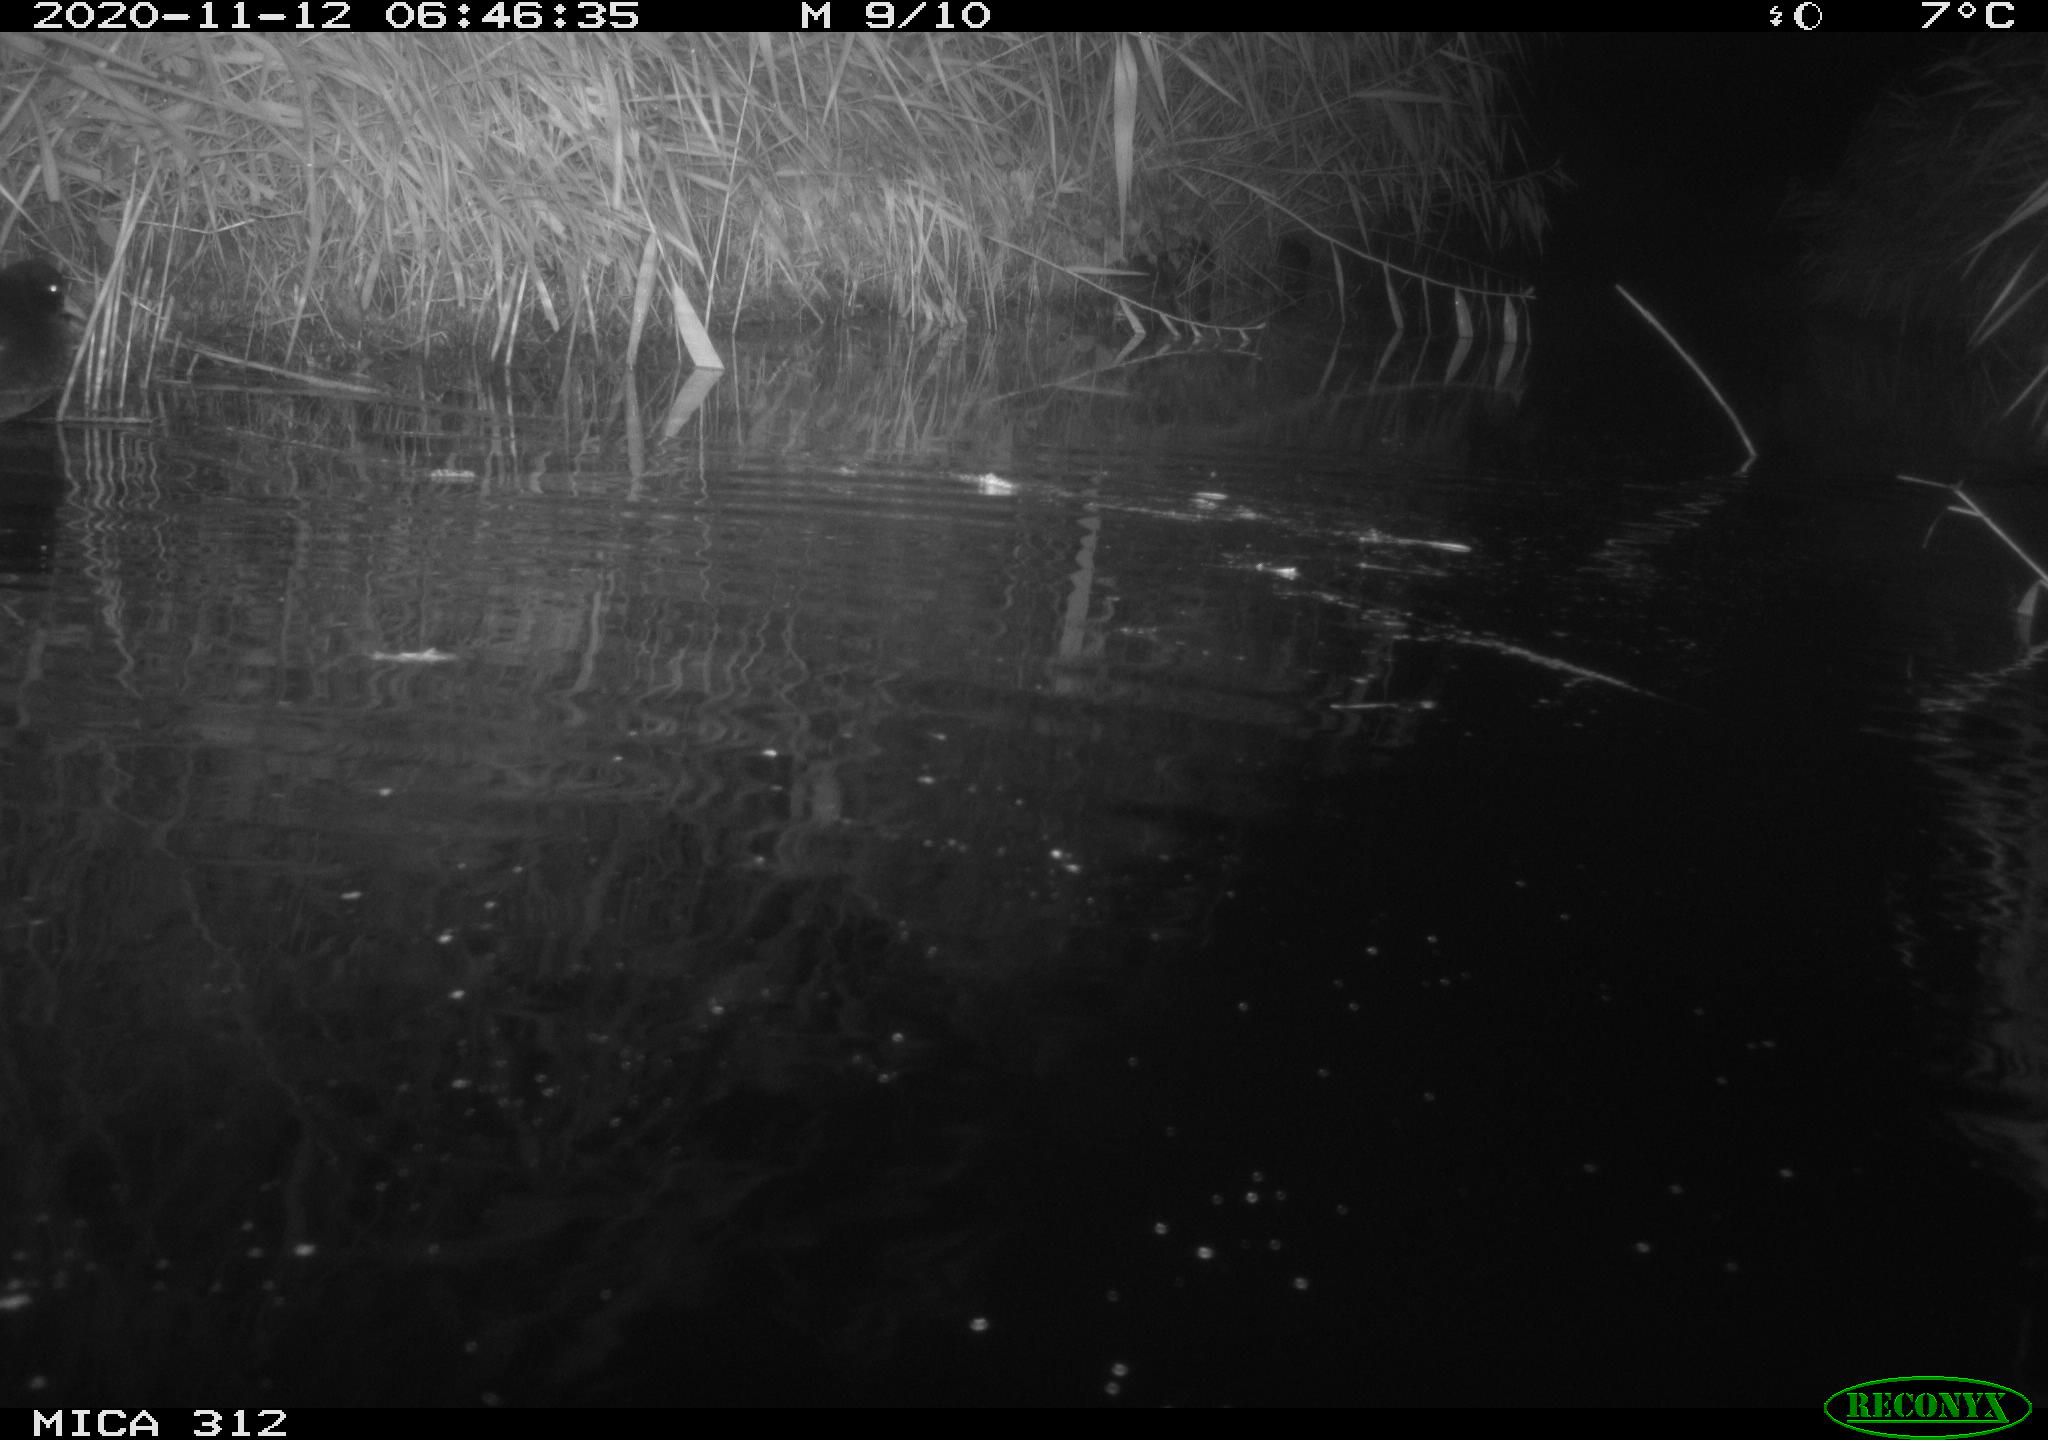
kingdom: Animalia
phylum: Chordata
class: Mammalia
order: Rodentia
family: Muridae
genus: Rattus
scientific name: Rattus norvegicus
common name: Brown rat
